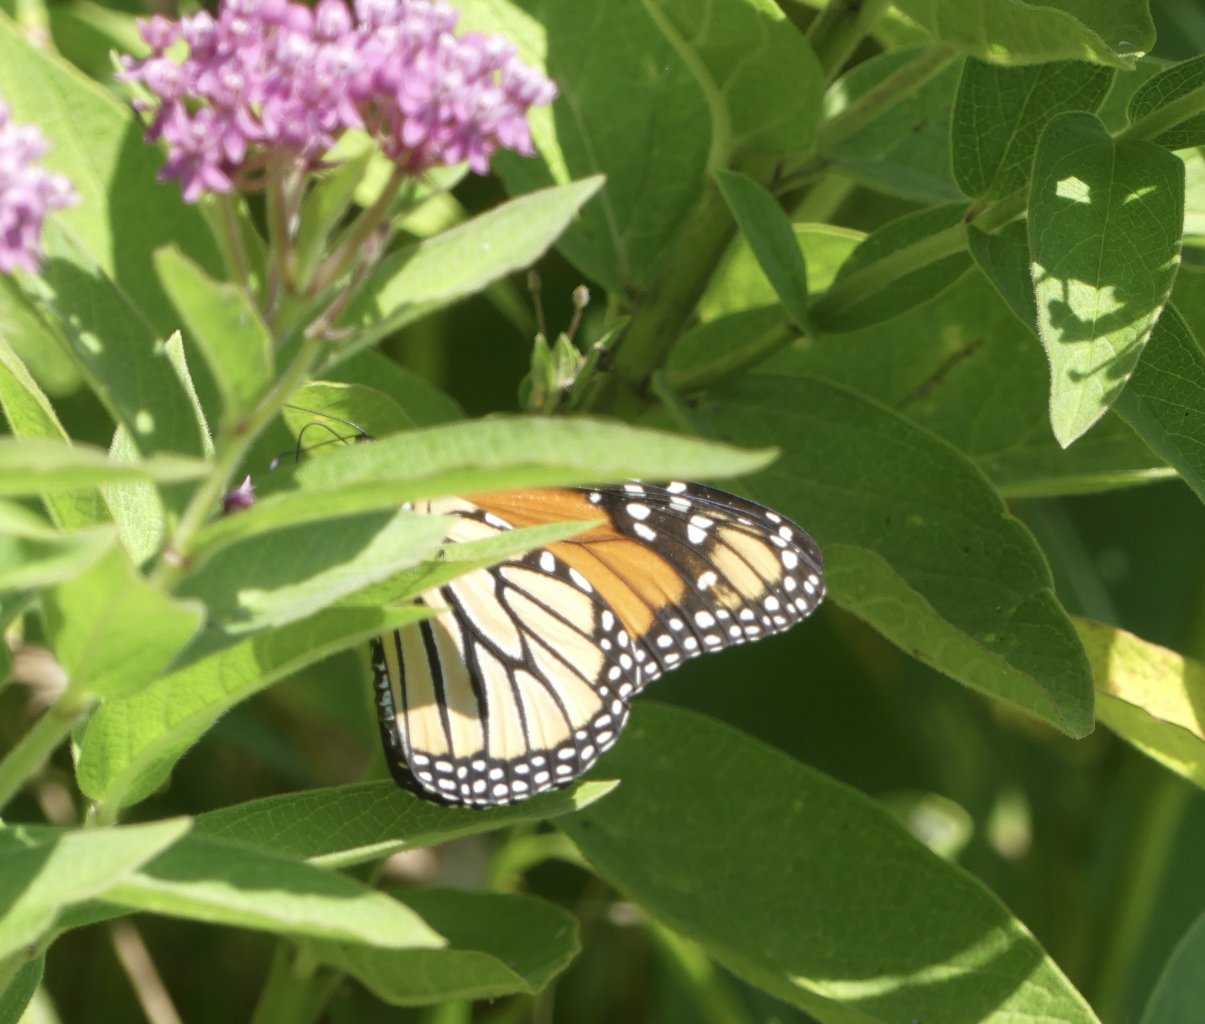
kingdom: Animalia
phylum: Arthropoda
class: Insecta
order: Lepidoptera
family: Nymphalidae
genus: Danaus
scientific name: Danaus plexippus
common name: Monarch
